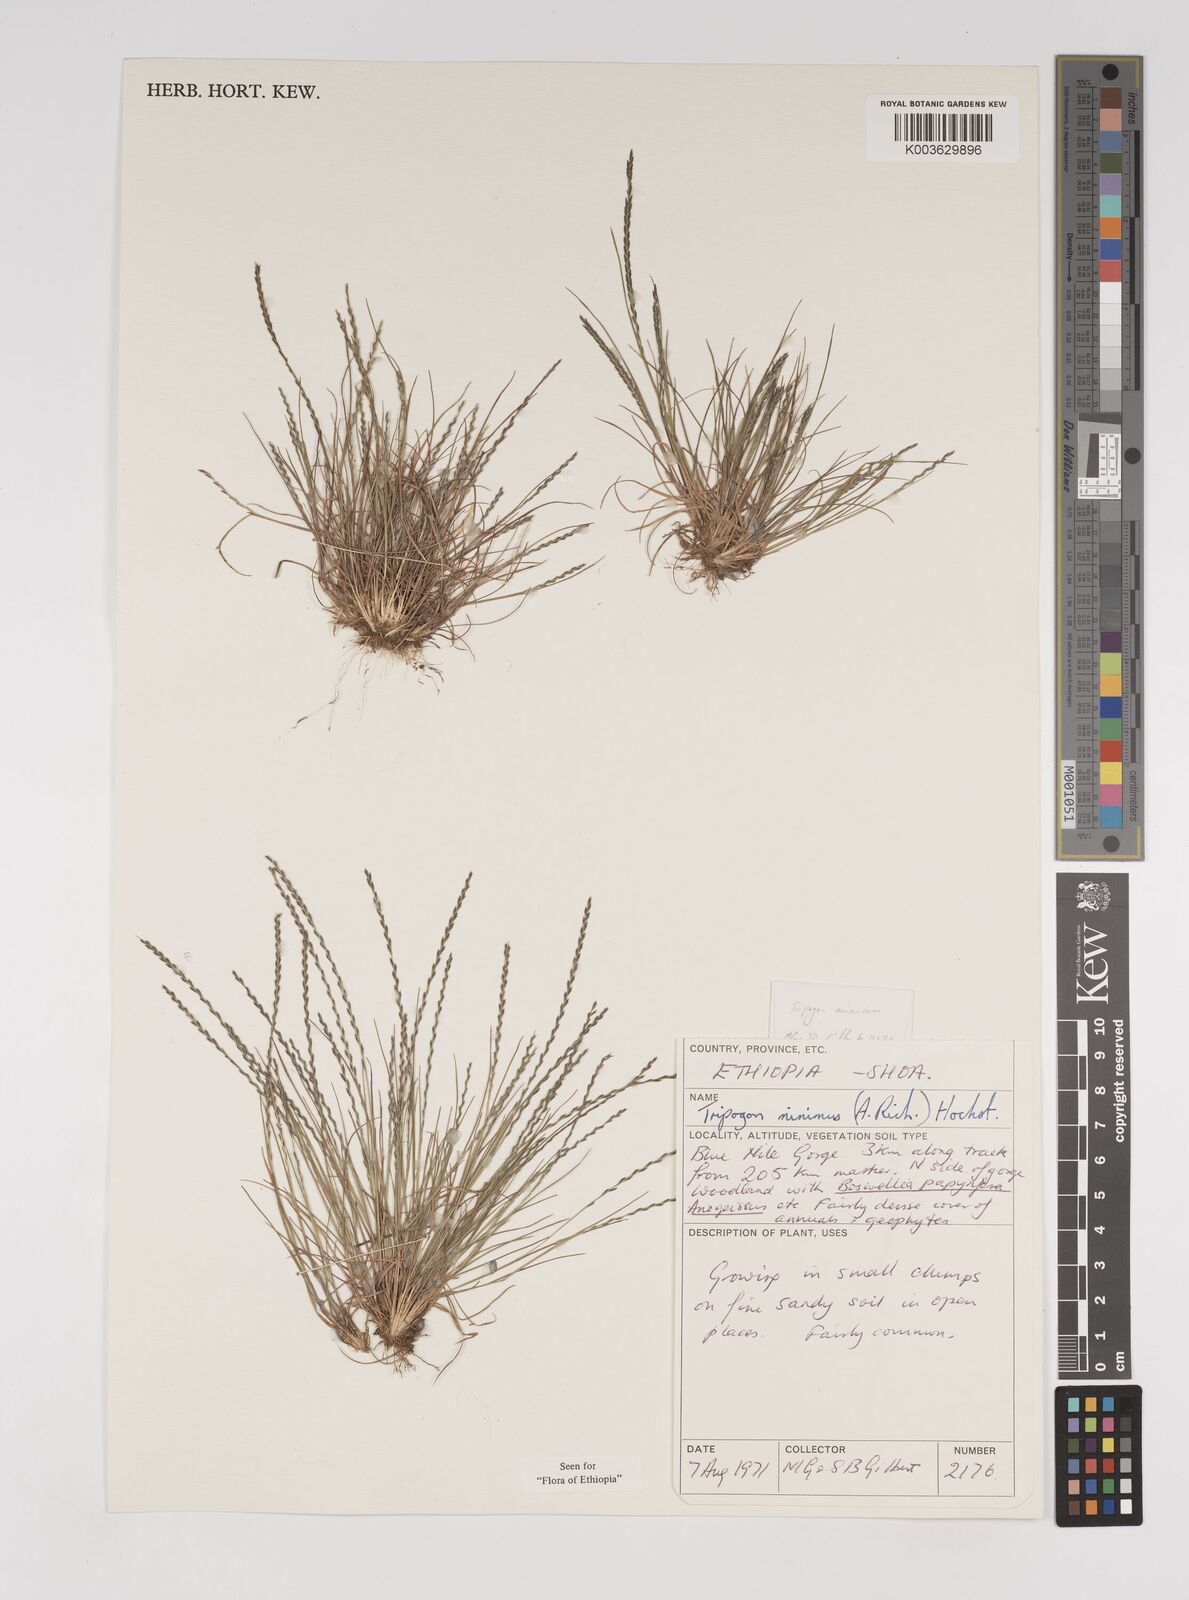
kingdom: Plantae
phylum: Tracheophyta
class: Liliopsida
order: Poales
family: Poaceae
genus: Tripogonella
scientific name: Tripogonella minima
